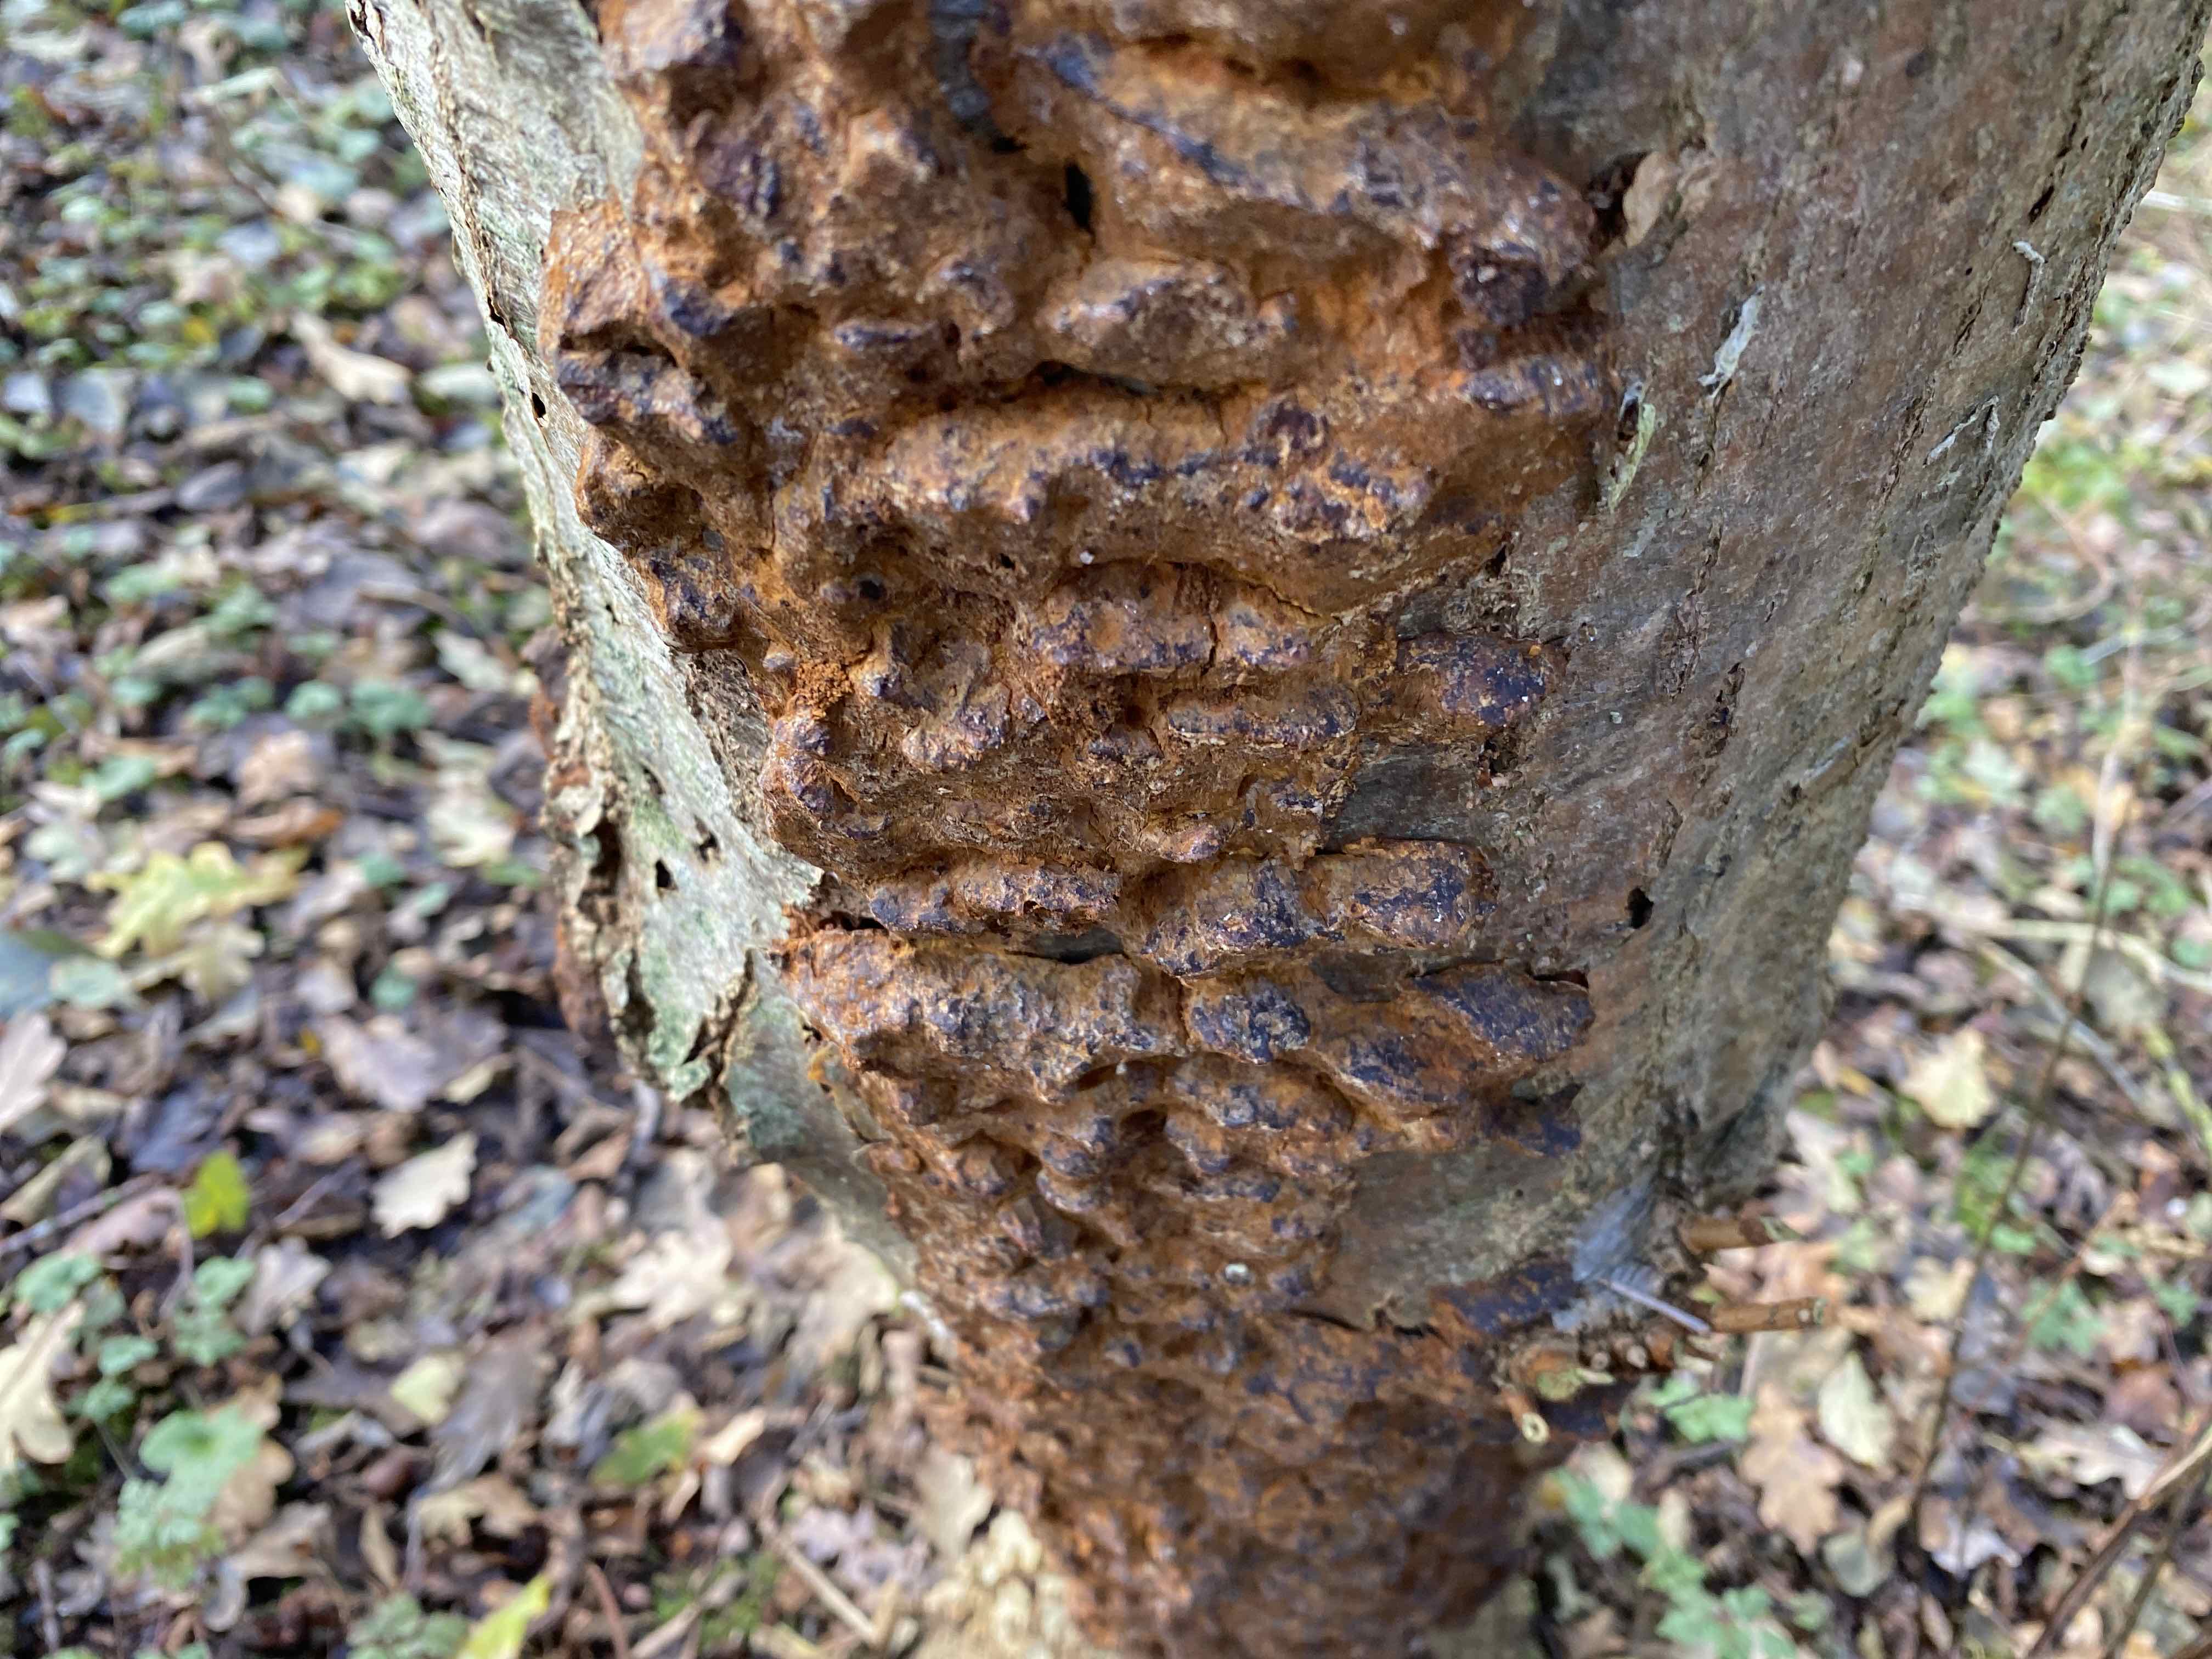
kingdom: Fungi
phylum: Basidiomycota
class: Agaricomycetes
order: Hymenochaetales
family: Hymenochaetaceae
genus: Xanthoporia
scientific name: Xanthoporia radiata
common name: elle-spejlporesvamp
